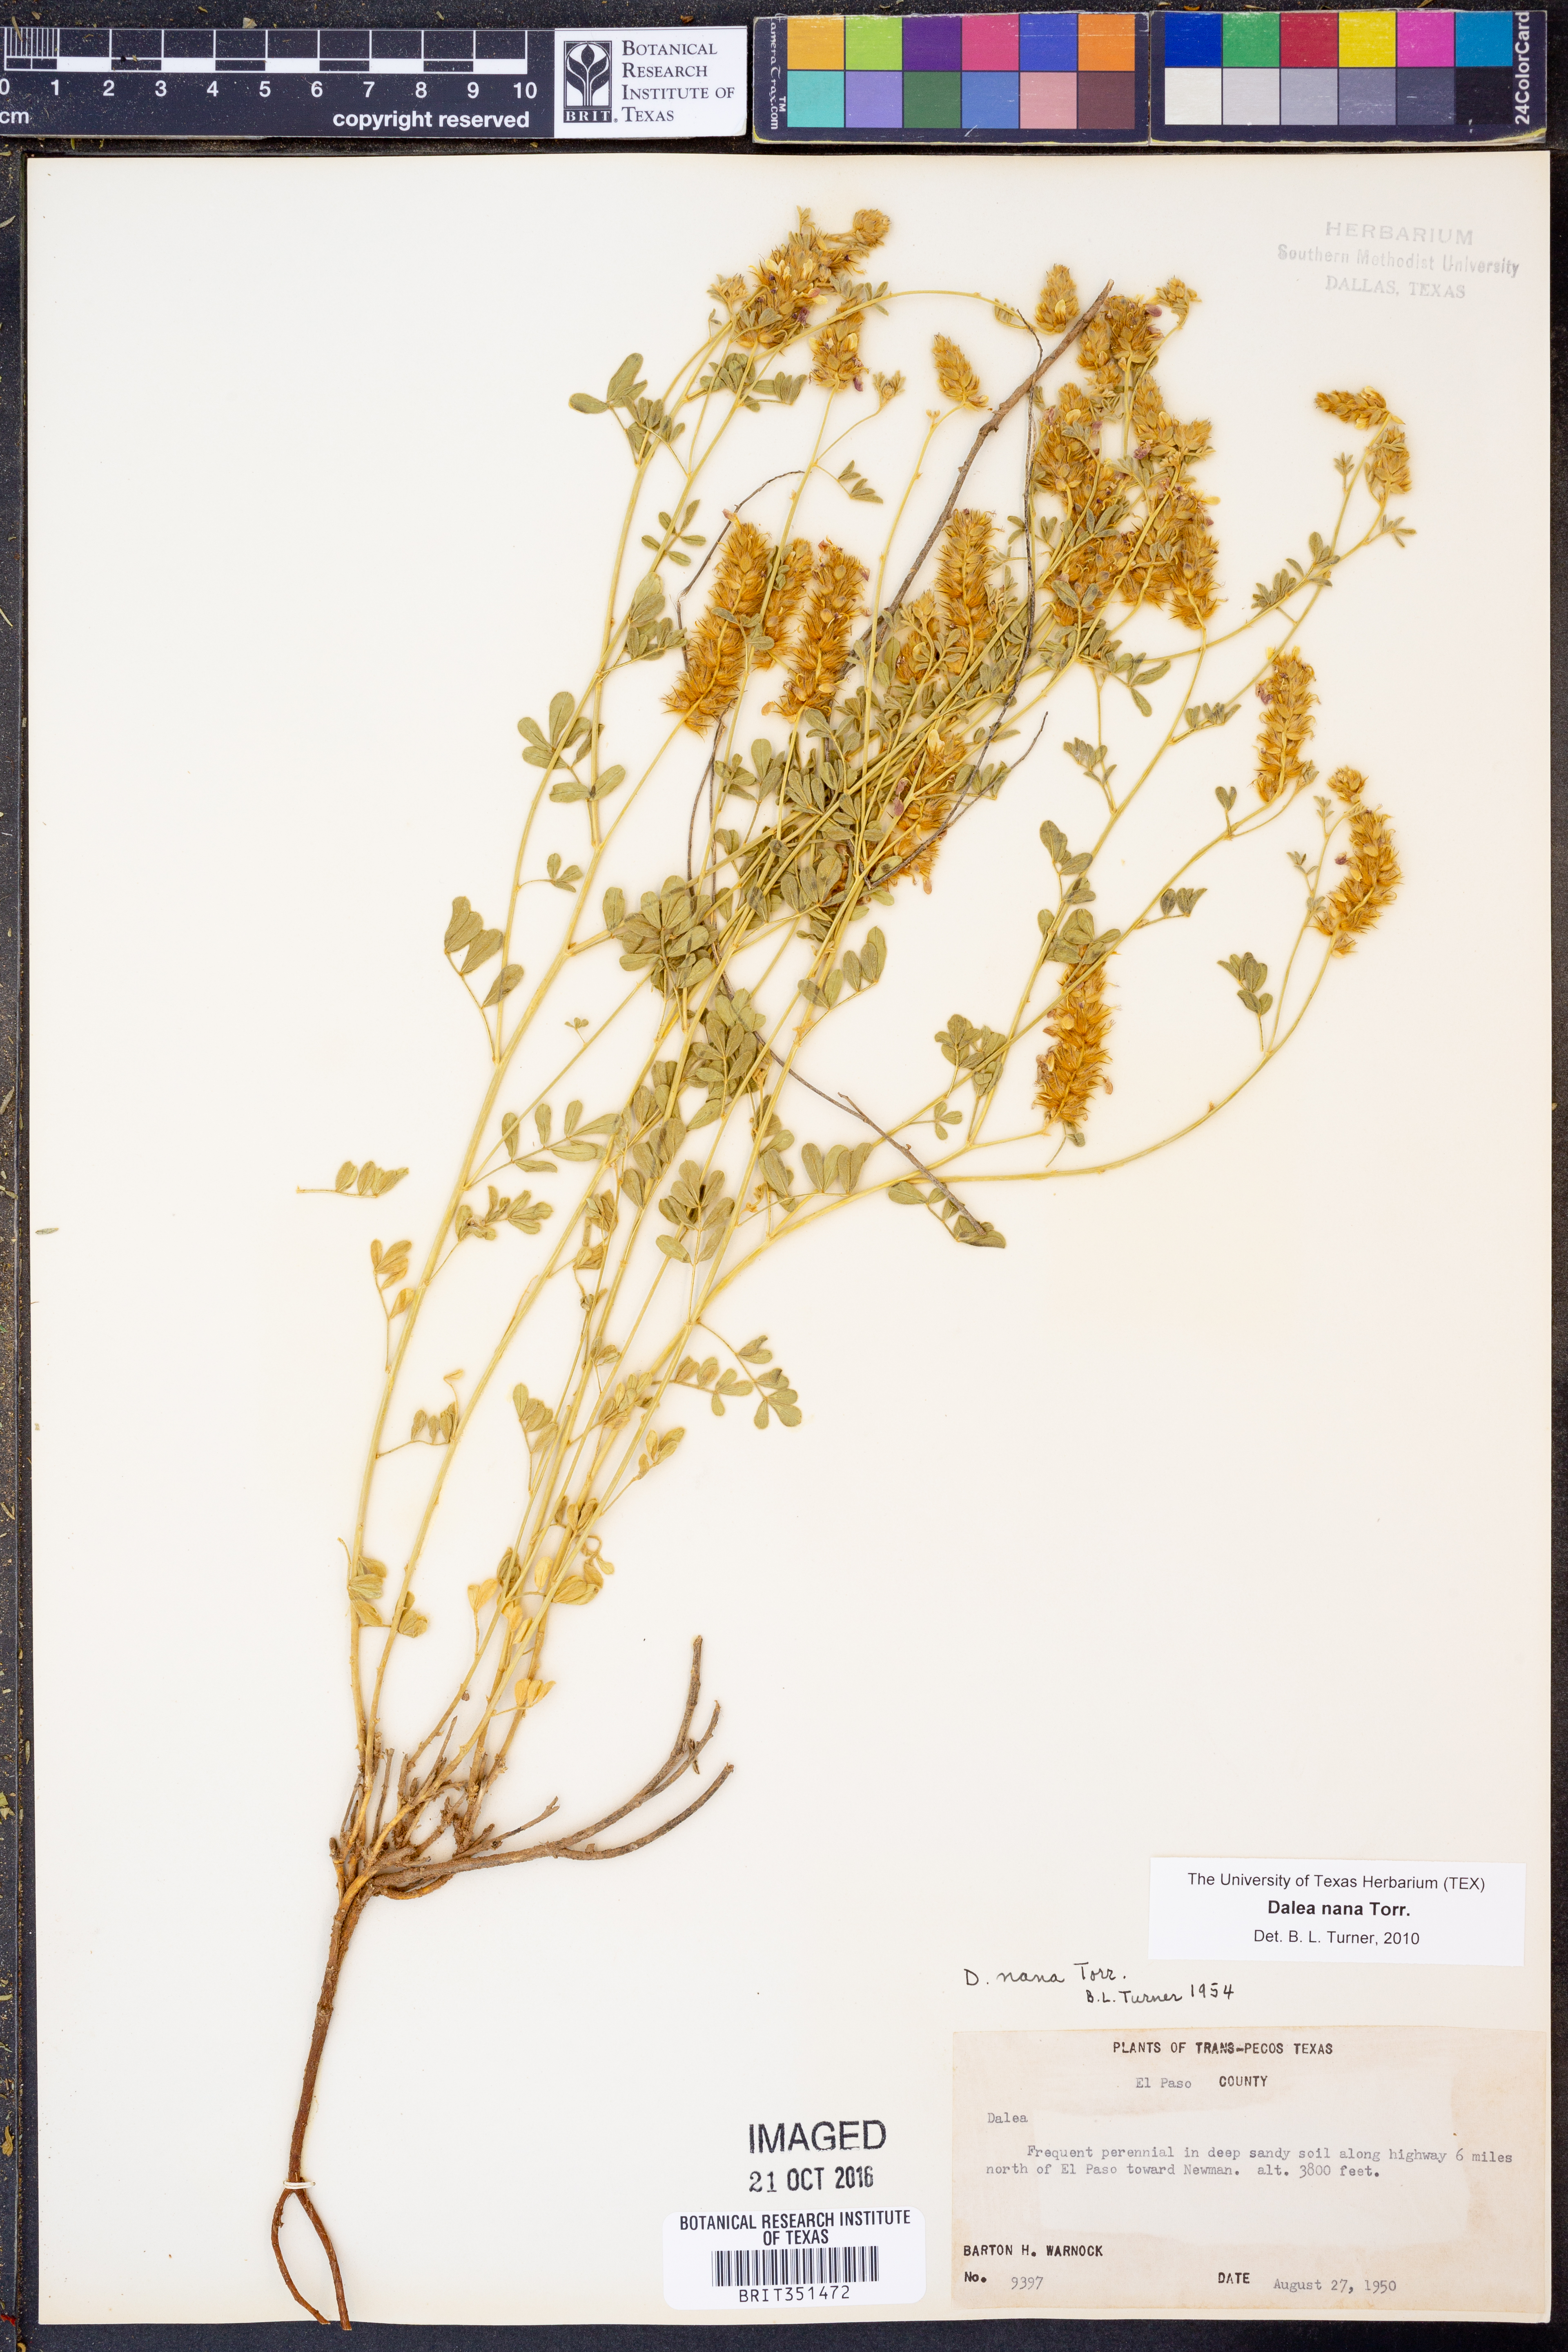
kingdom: Plantae
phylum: Tracheophyta
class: Magnoliopsida
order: Fabales
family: Fabaceae
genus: Dalea
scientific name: Dalea nana
